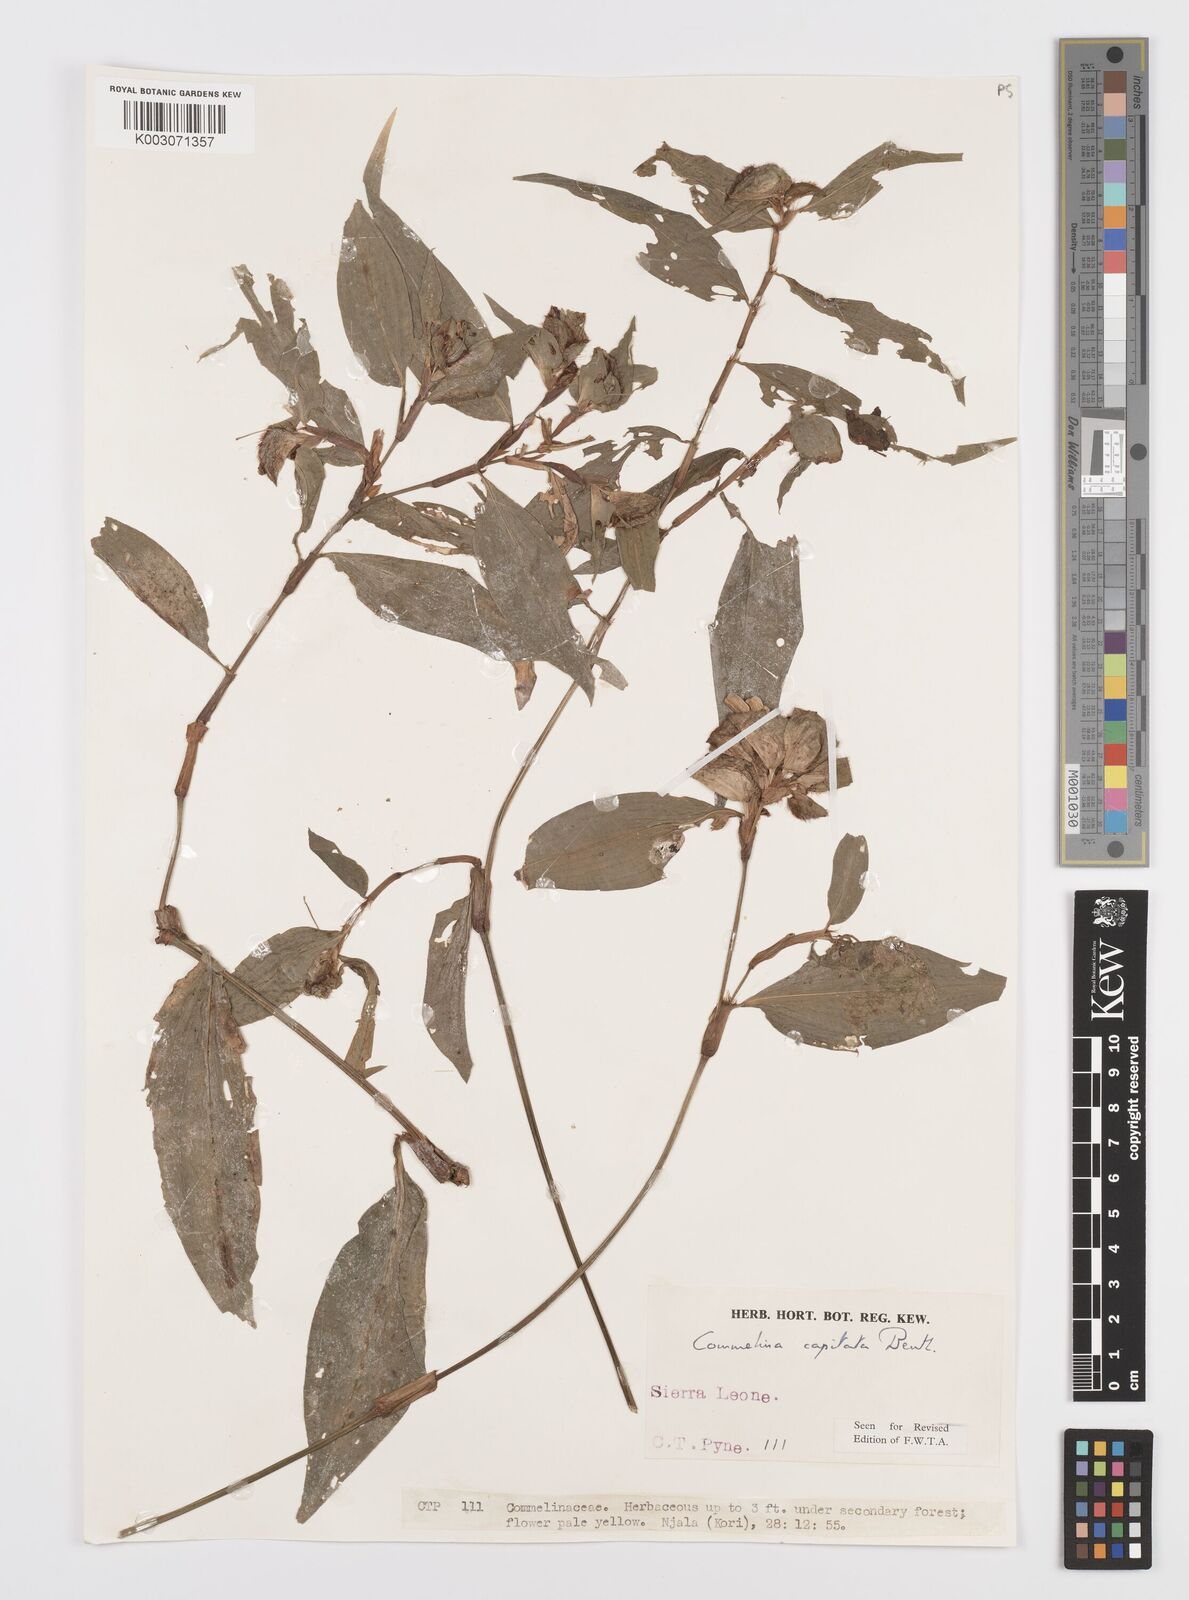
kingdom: Plantae
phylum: Tracheophyta
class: Liliopsida
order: Commelinales
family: Commelinaceae
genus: Commelina
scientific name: Commelina capitata
